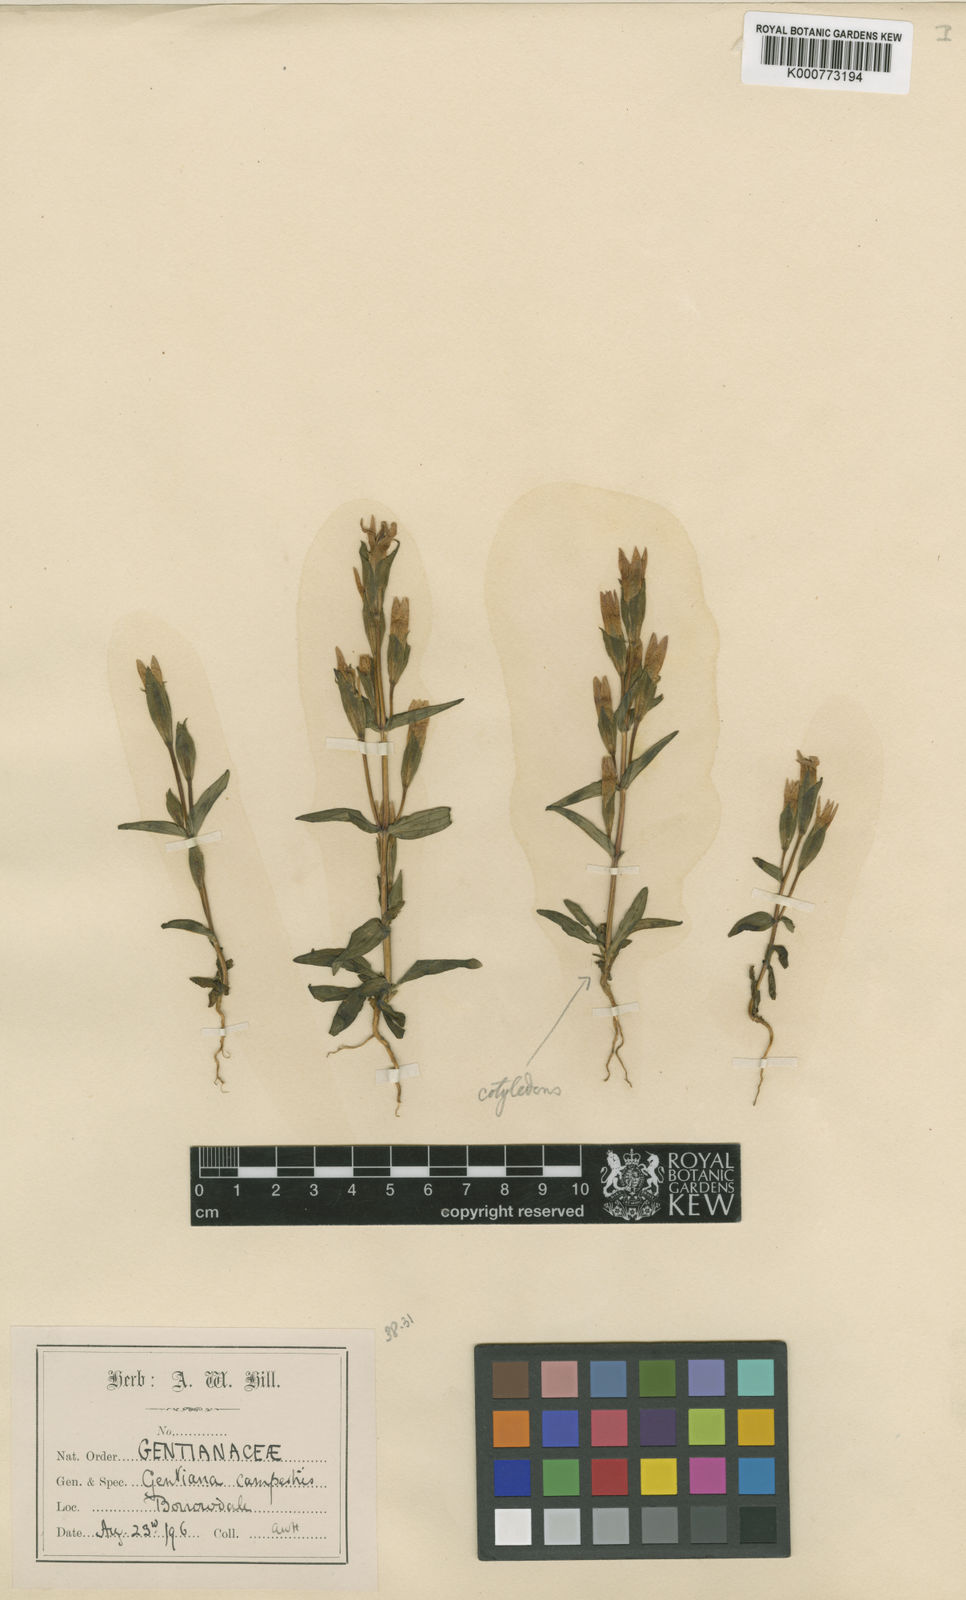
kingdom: Plantae
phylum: Tracheophyta
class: Magnoliopsida
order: Gentianales
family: Gentianaceae
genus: Gentianella
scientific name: Gentianella
